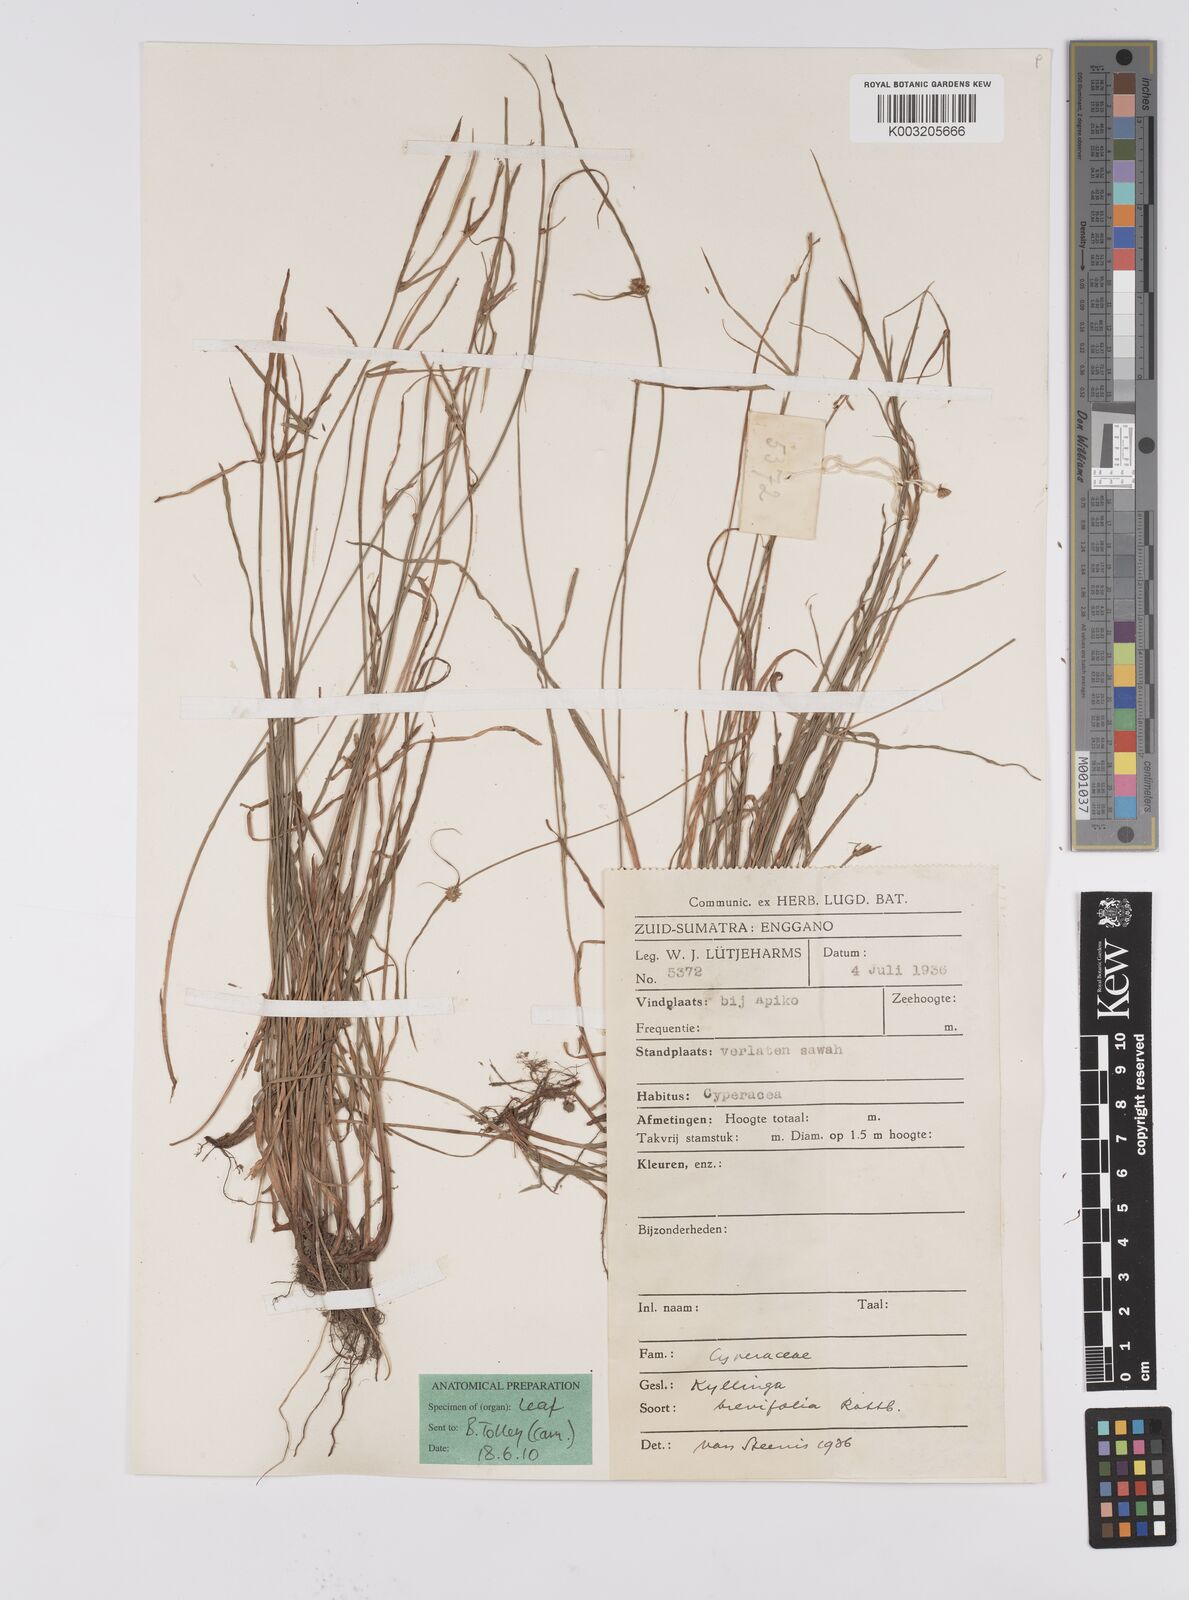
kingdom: Plantae
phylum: Tracheophyta
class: Liliopsida
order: Poales
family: Cyperaceae
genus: Cyperus
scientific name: Cyperus brevifolius
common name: Globe kyllinga
